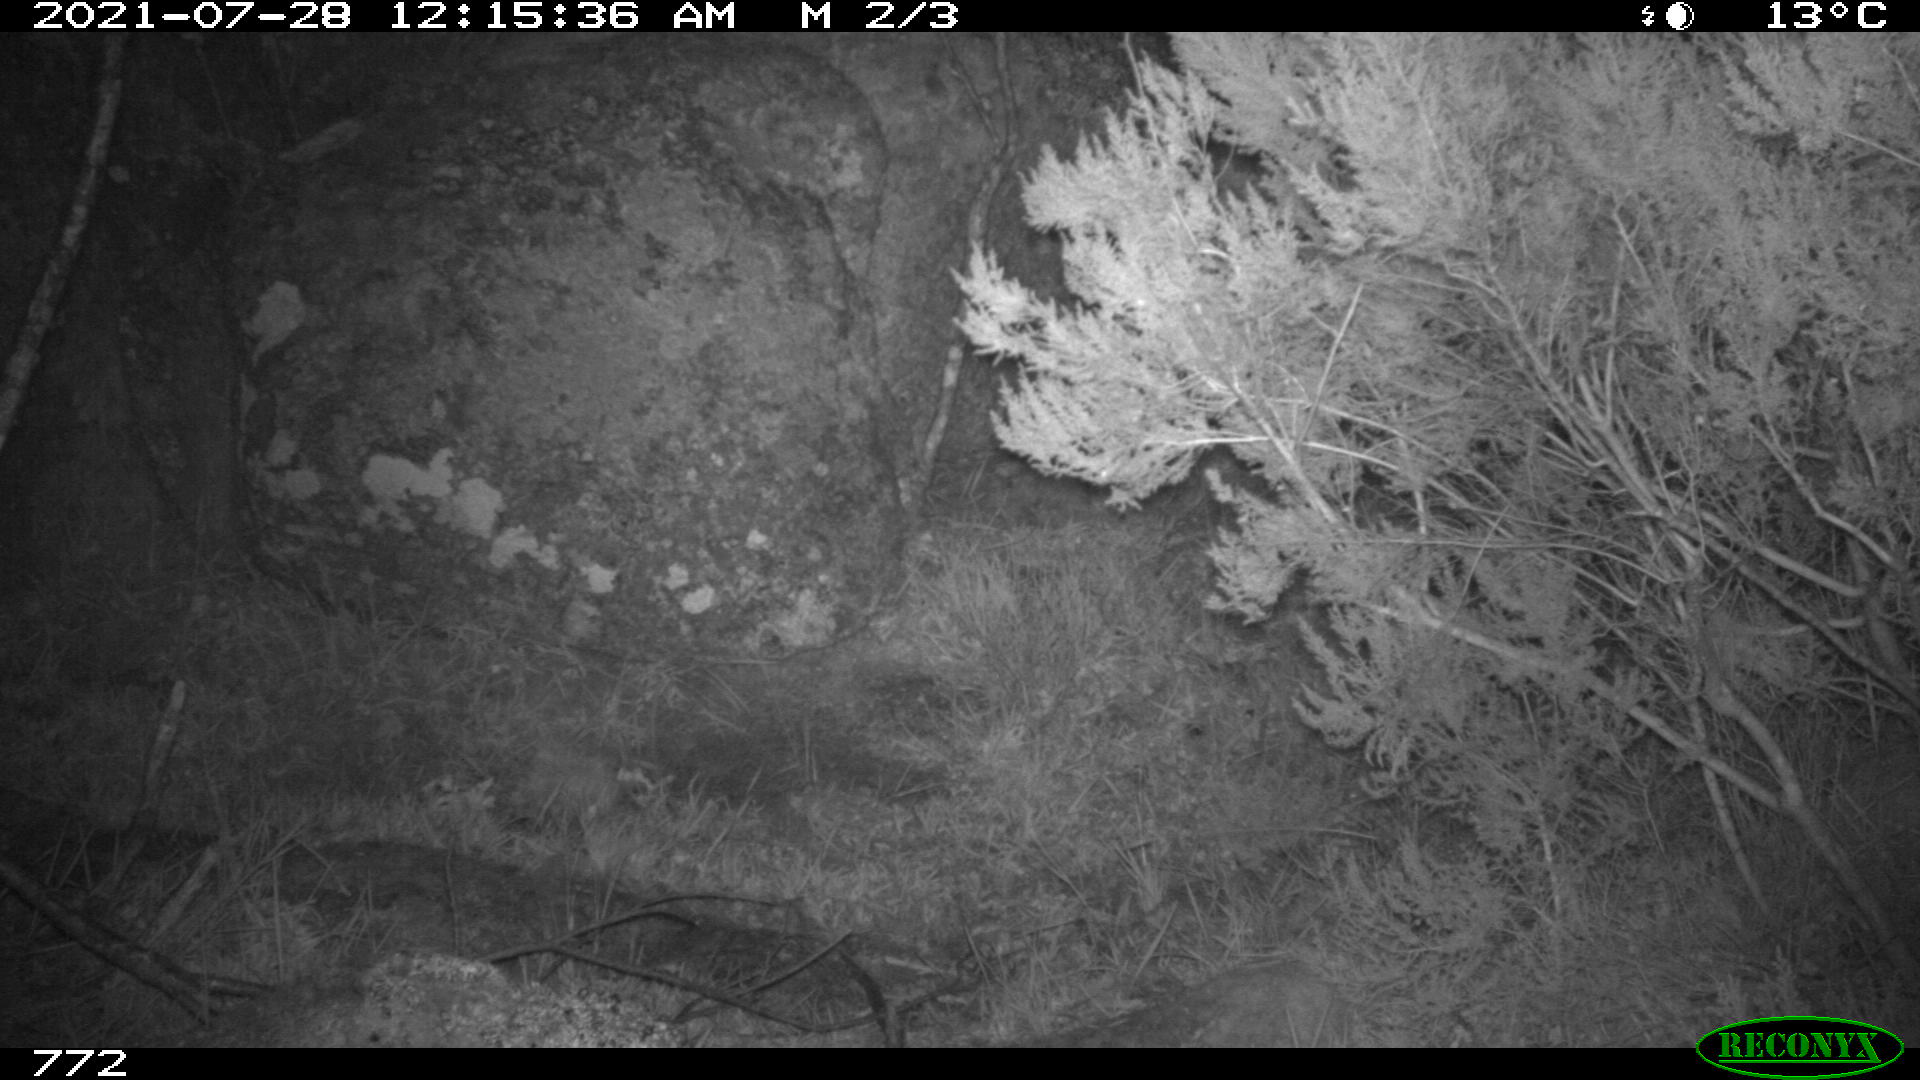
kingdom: Animalia
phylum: Chordata
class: Mammalia
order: Artiodactyla
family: Cervidae
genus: Capreolus
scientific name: Capreolus capreolus
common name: Western roe deer
